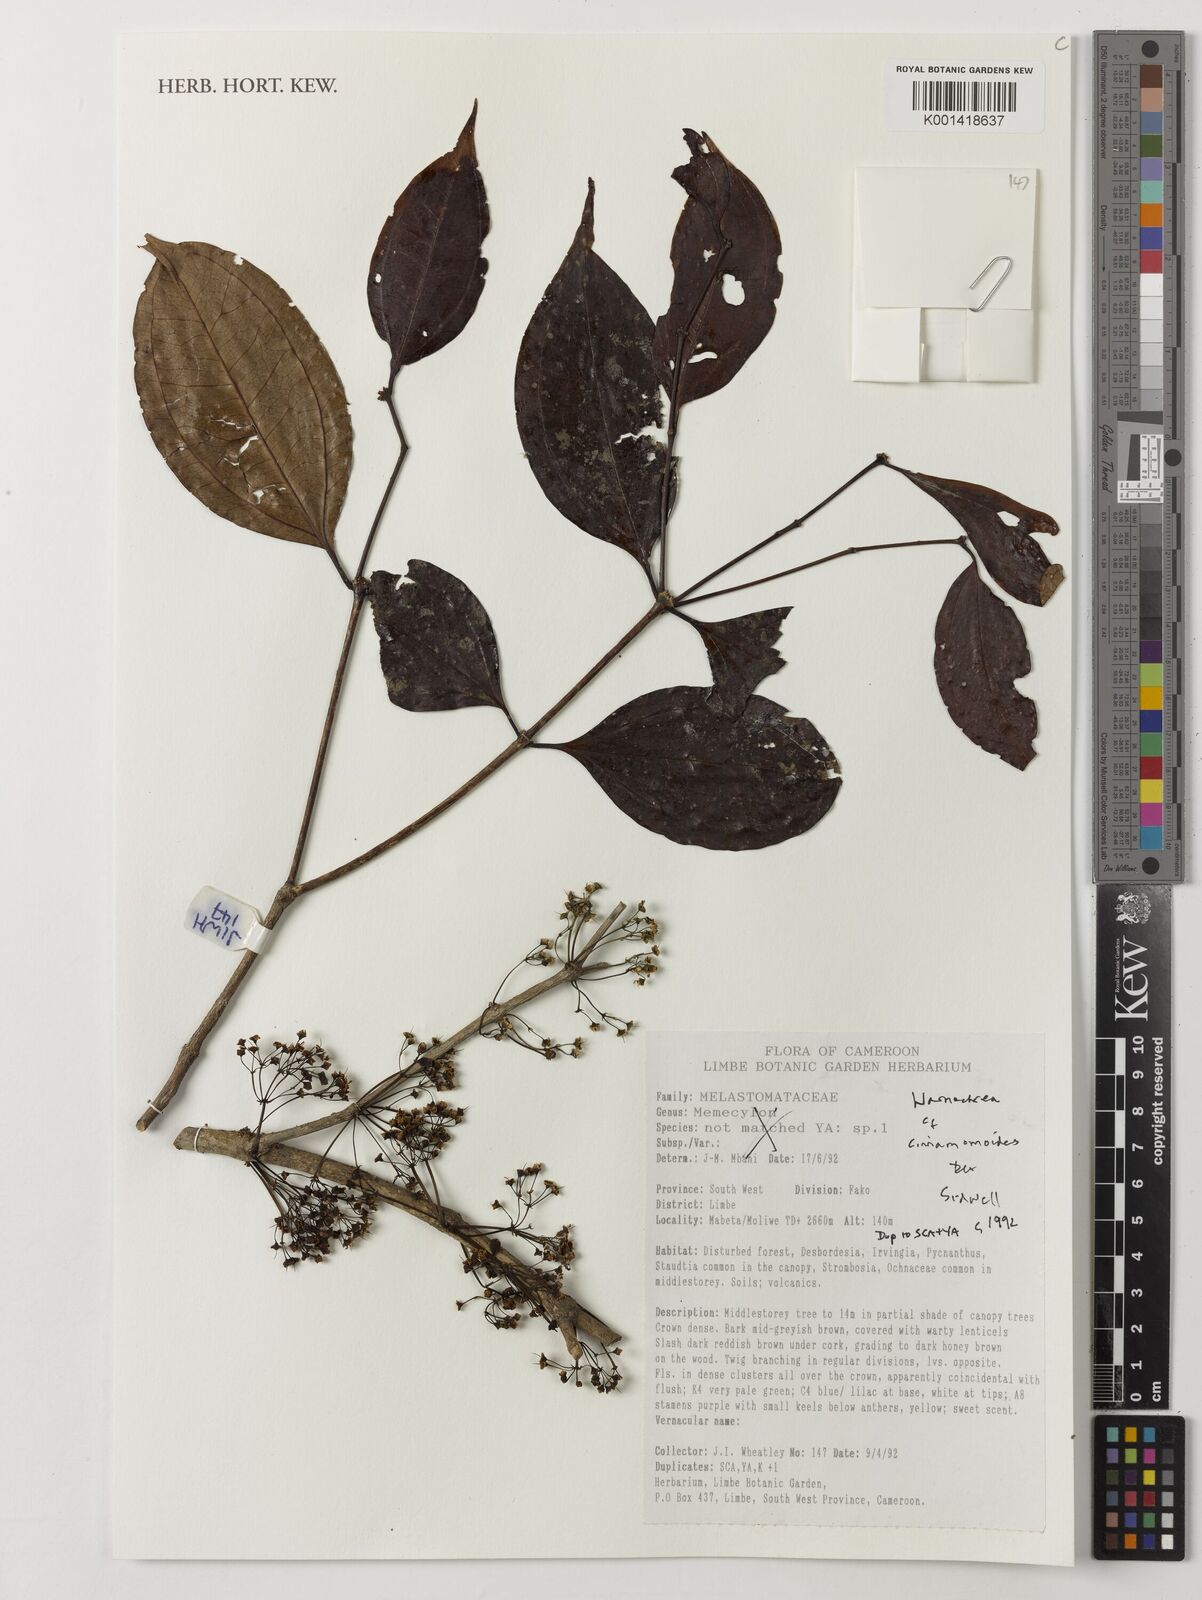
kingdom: Plantae
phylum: Tracheophyta
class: Magnoliopsida
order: Myrtales
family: Melastomataceae
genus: Warneckea
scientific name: Warneckea cinnamomoides
